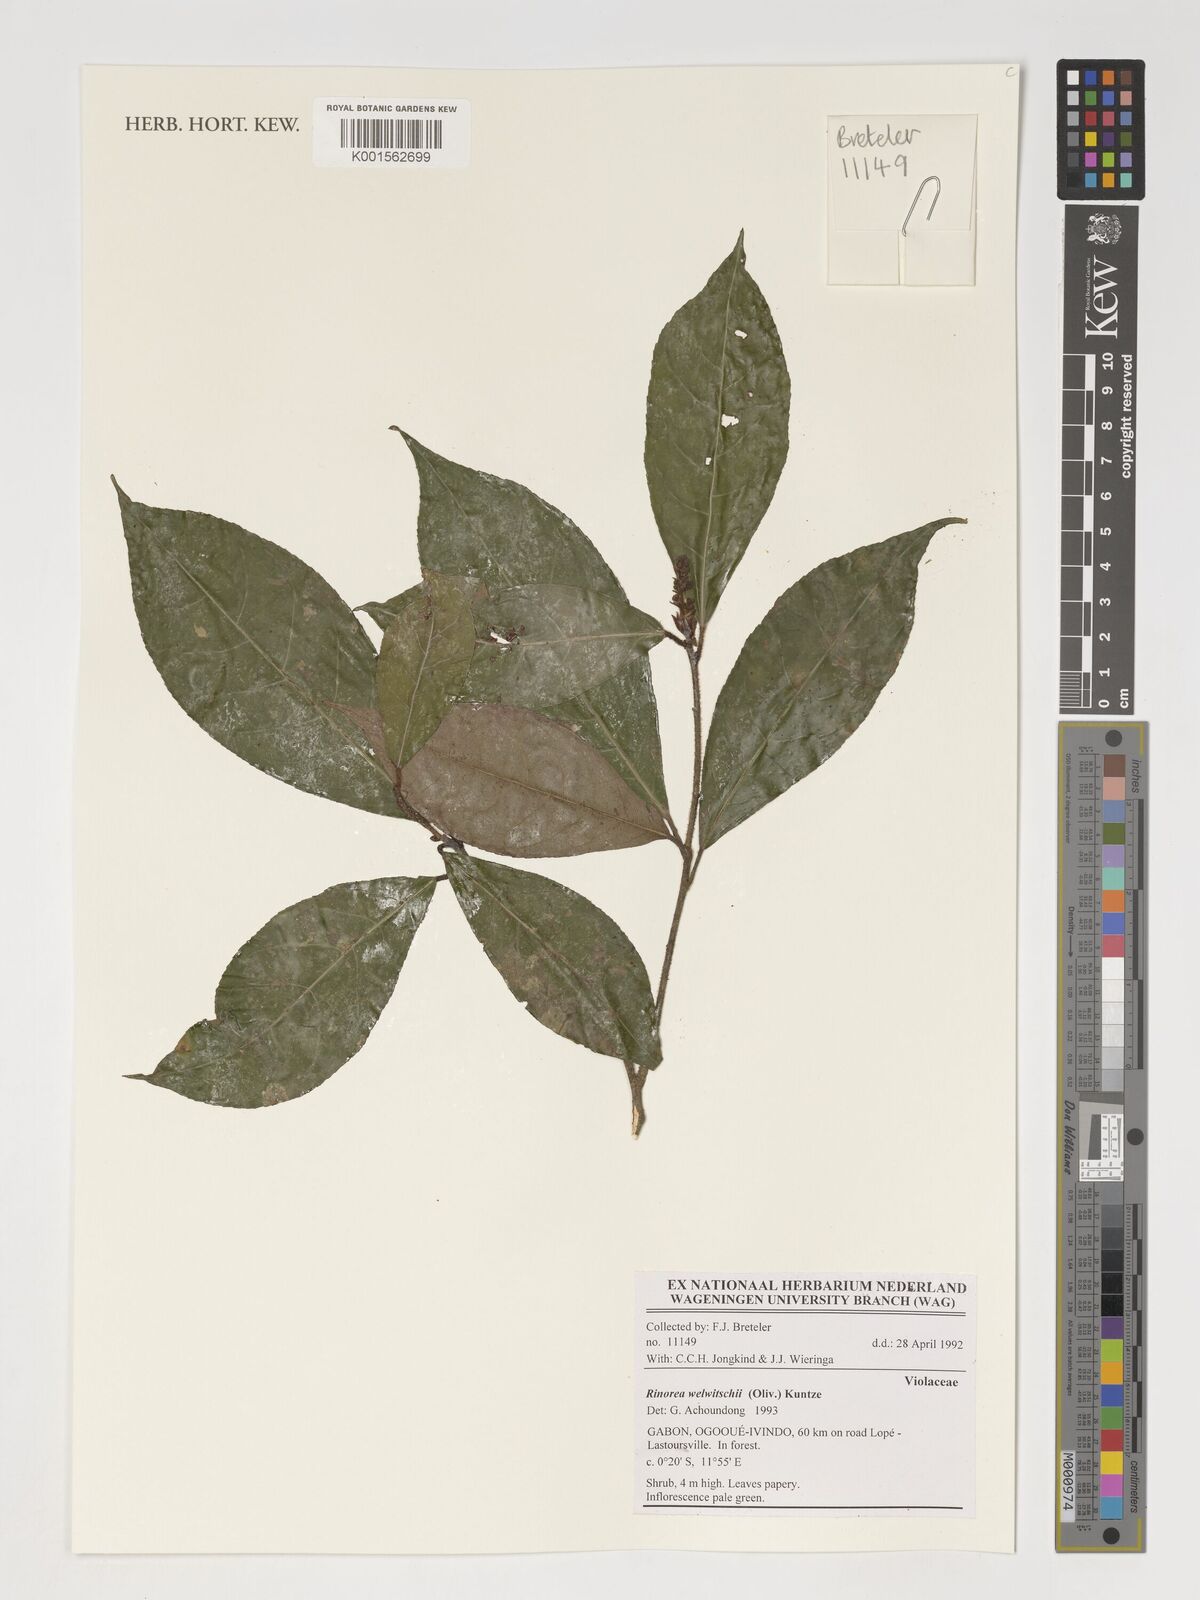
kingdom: Plantae
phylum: Tracheophyta
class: Magnoliopsida
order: Malpighiales
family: Violaceae
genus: Rinorea
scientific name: Rinorea welwitschii
